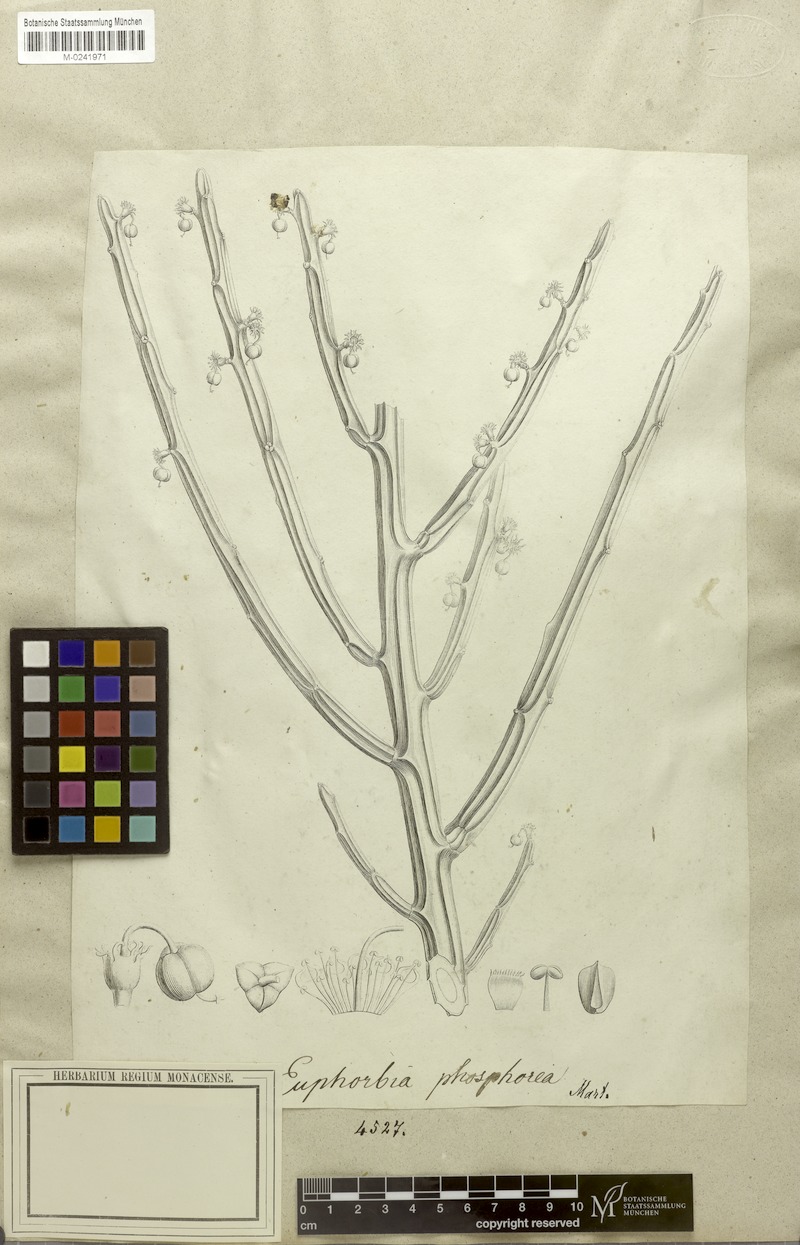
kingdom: Plantae
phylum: Tracheophyta
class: Magnoliopsida
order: Malpighiales
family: Euphorbiaceae
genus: Euphorbia
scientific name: Euphorbia phosphorea
